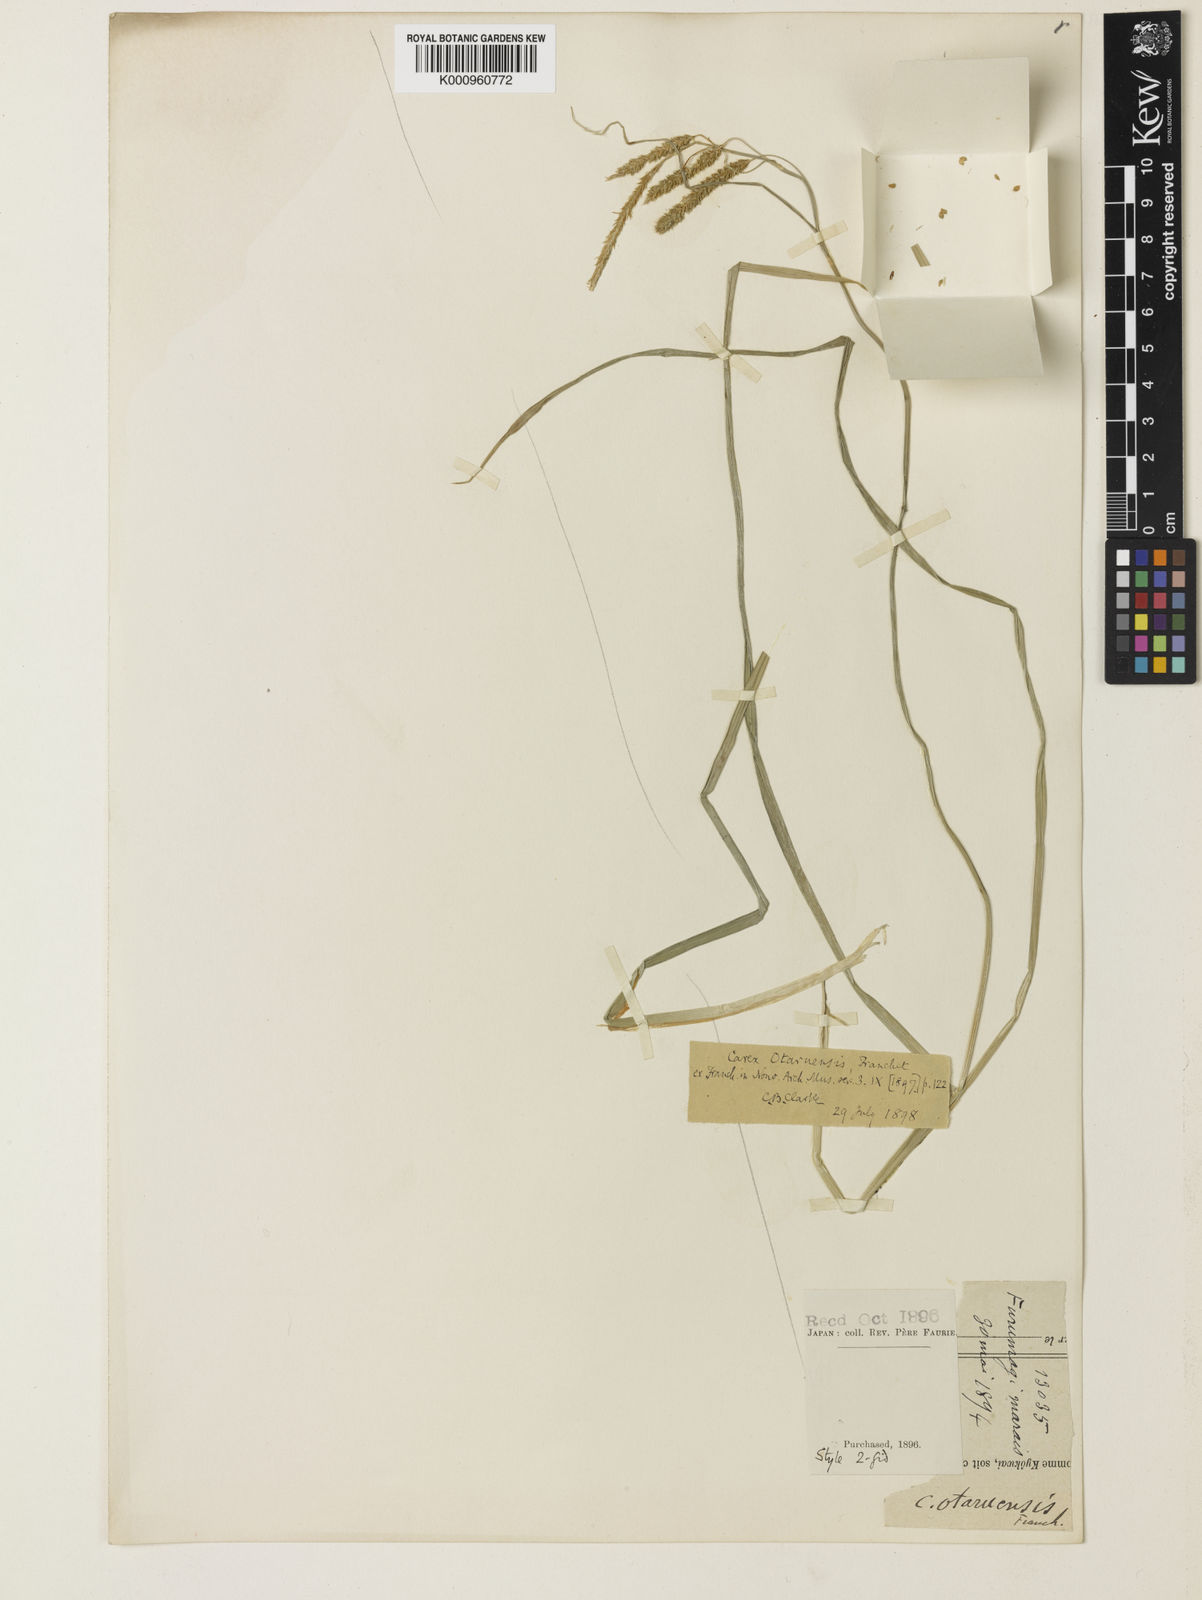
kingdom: Plantae
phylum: Tracheophyta
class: Liliopsida
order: Poales
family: Cyperaceae
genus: Carex
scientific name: Carex otaruensis
